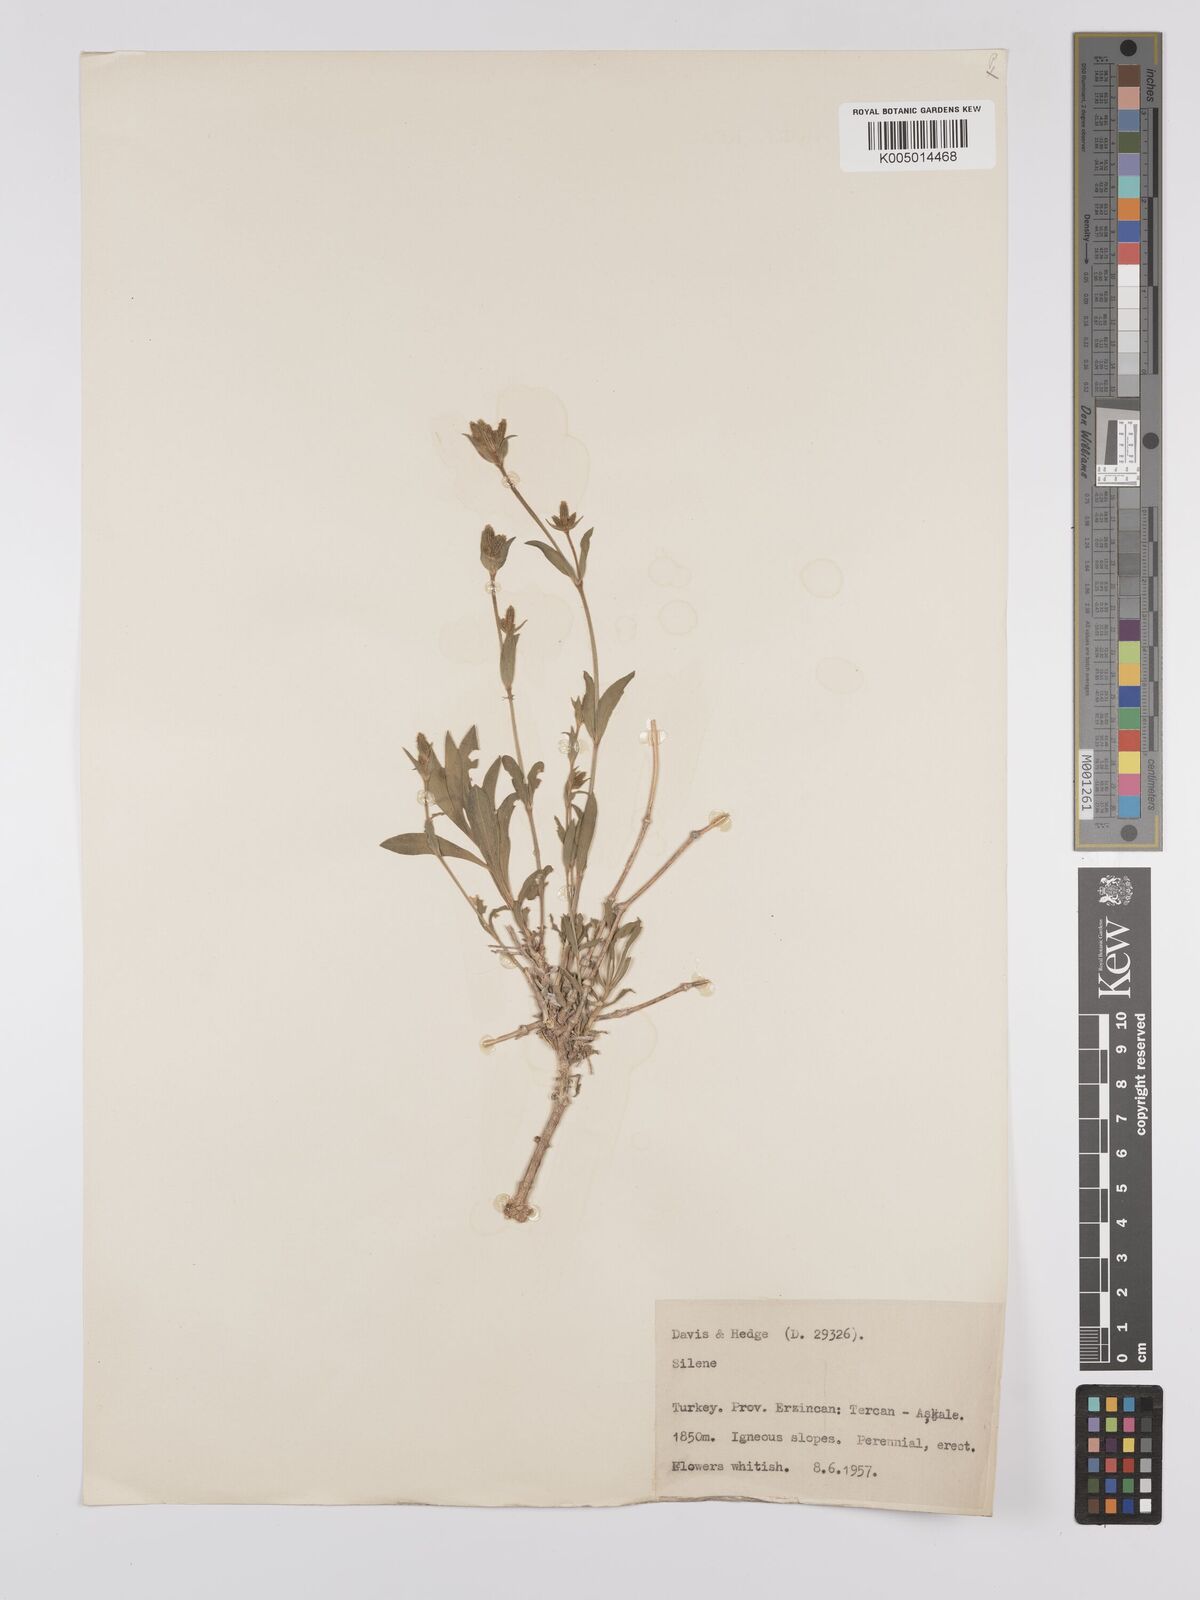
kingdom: Plantae
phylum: Tracheophyta
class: Magnoliopsida
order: Caryophyllales
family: Caryophyllaceae
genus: Silene
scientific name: Silene
